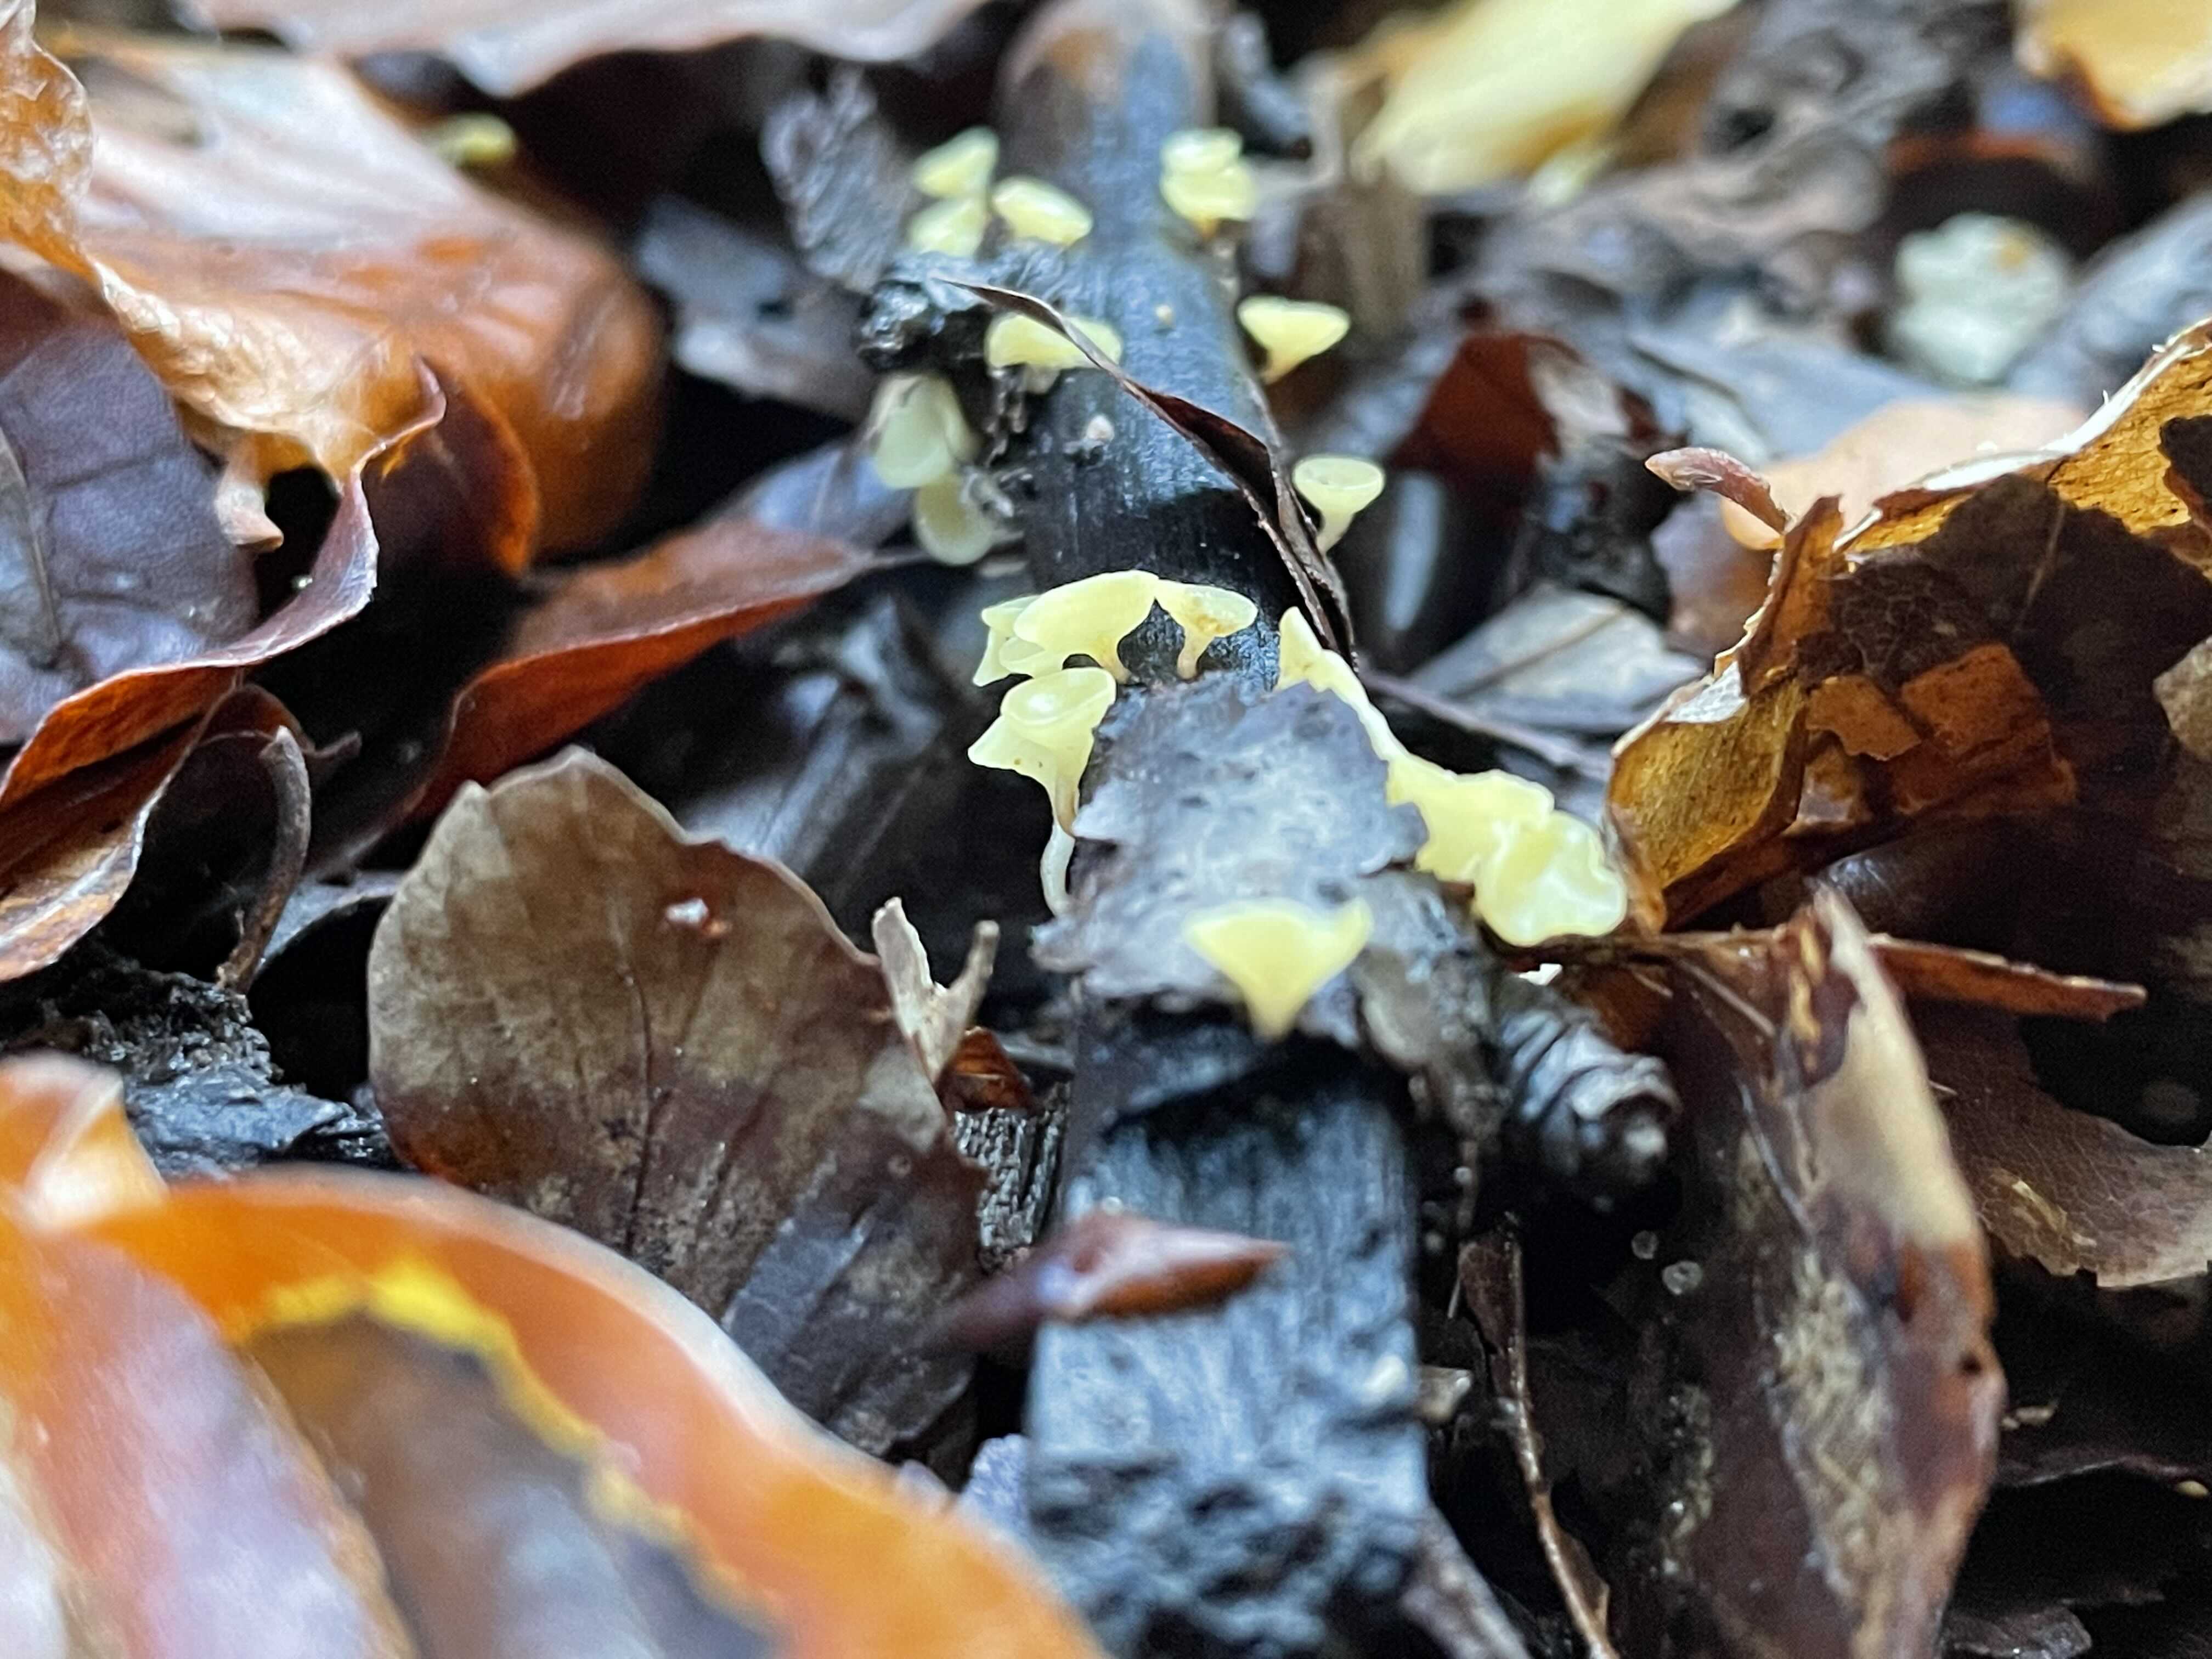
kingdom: Fungi
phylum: Ascomycota
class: Leotiomycetes
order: Helotiales
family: Helotiaceae
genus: Hymenoscyphus
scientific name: Hymenoscyphus serotinus
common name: krumsporet stilkskive
